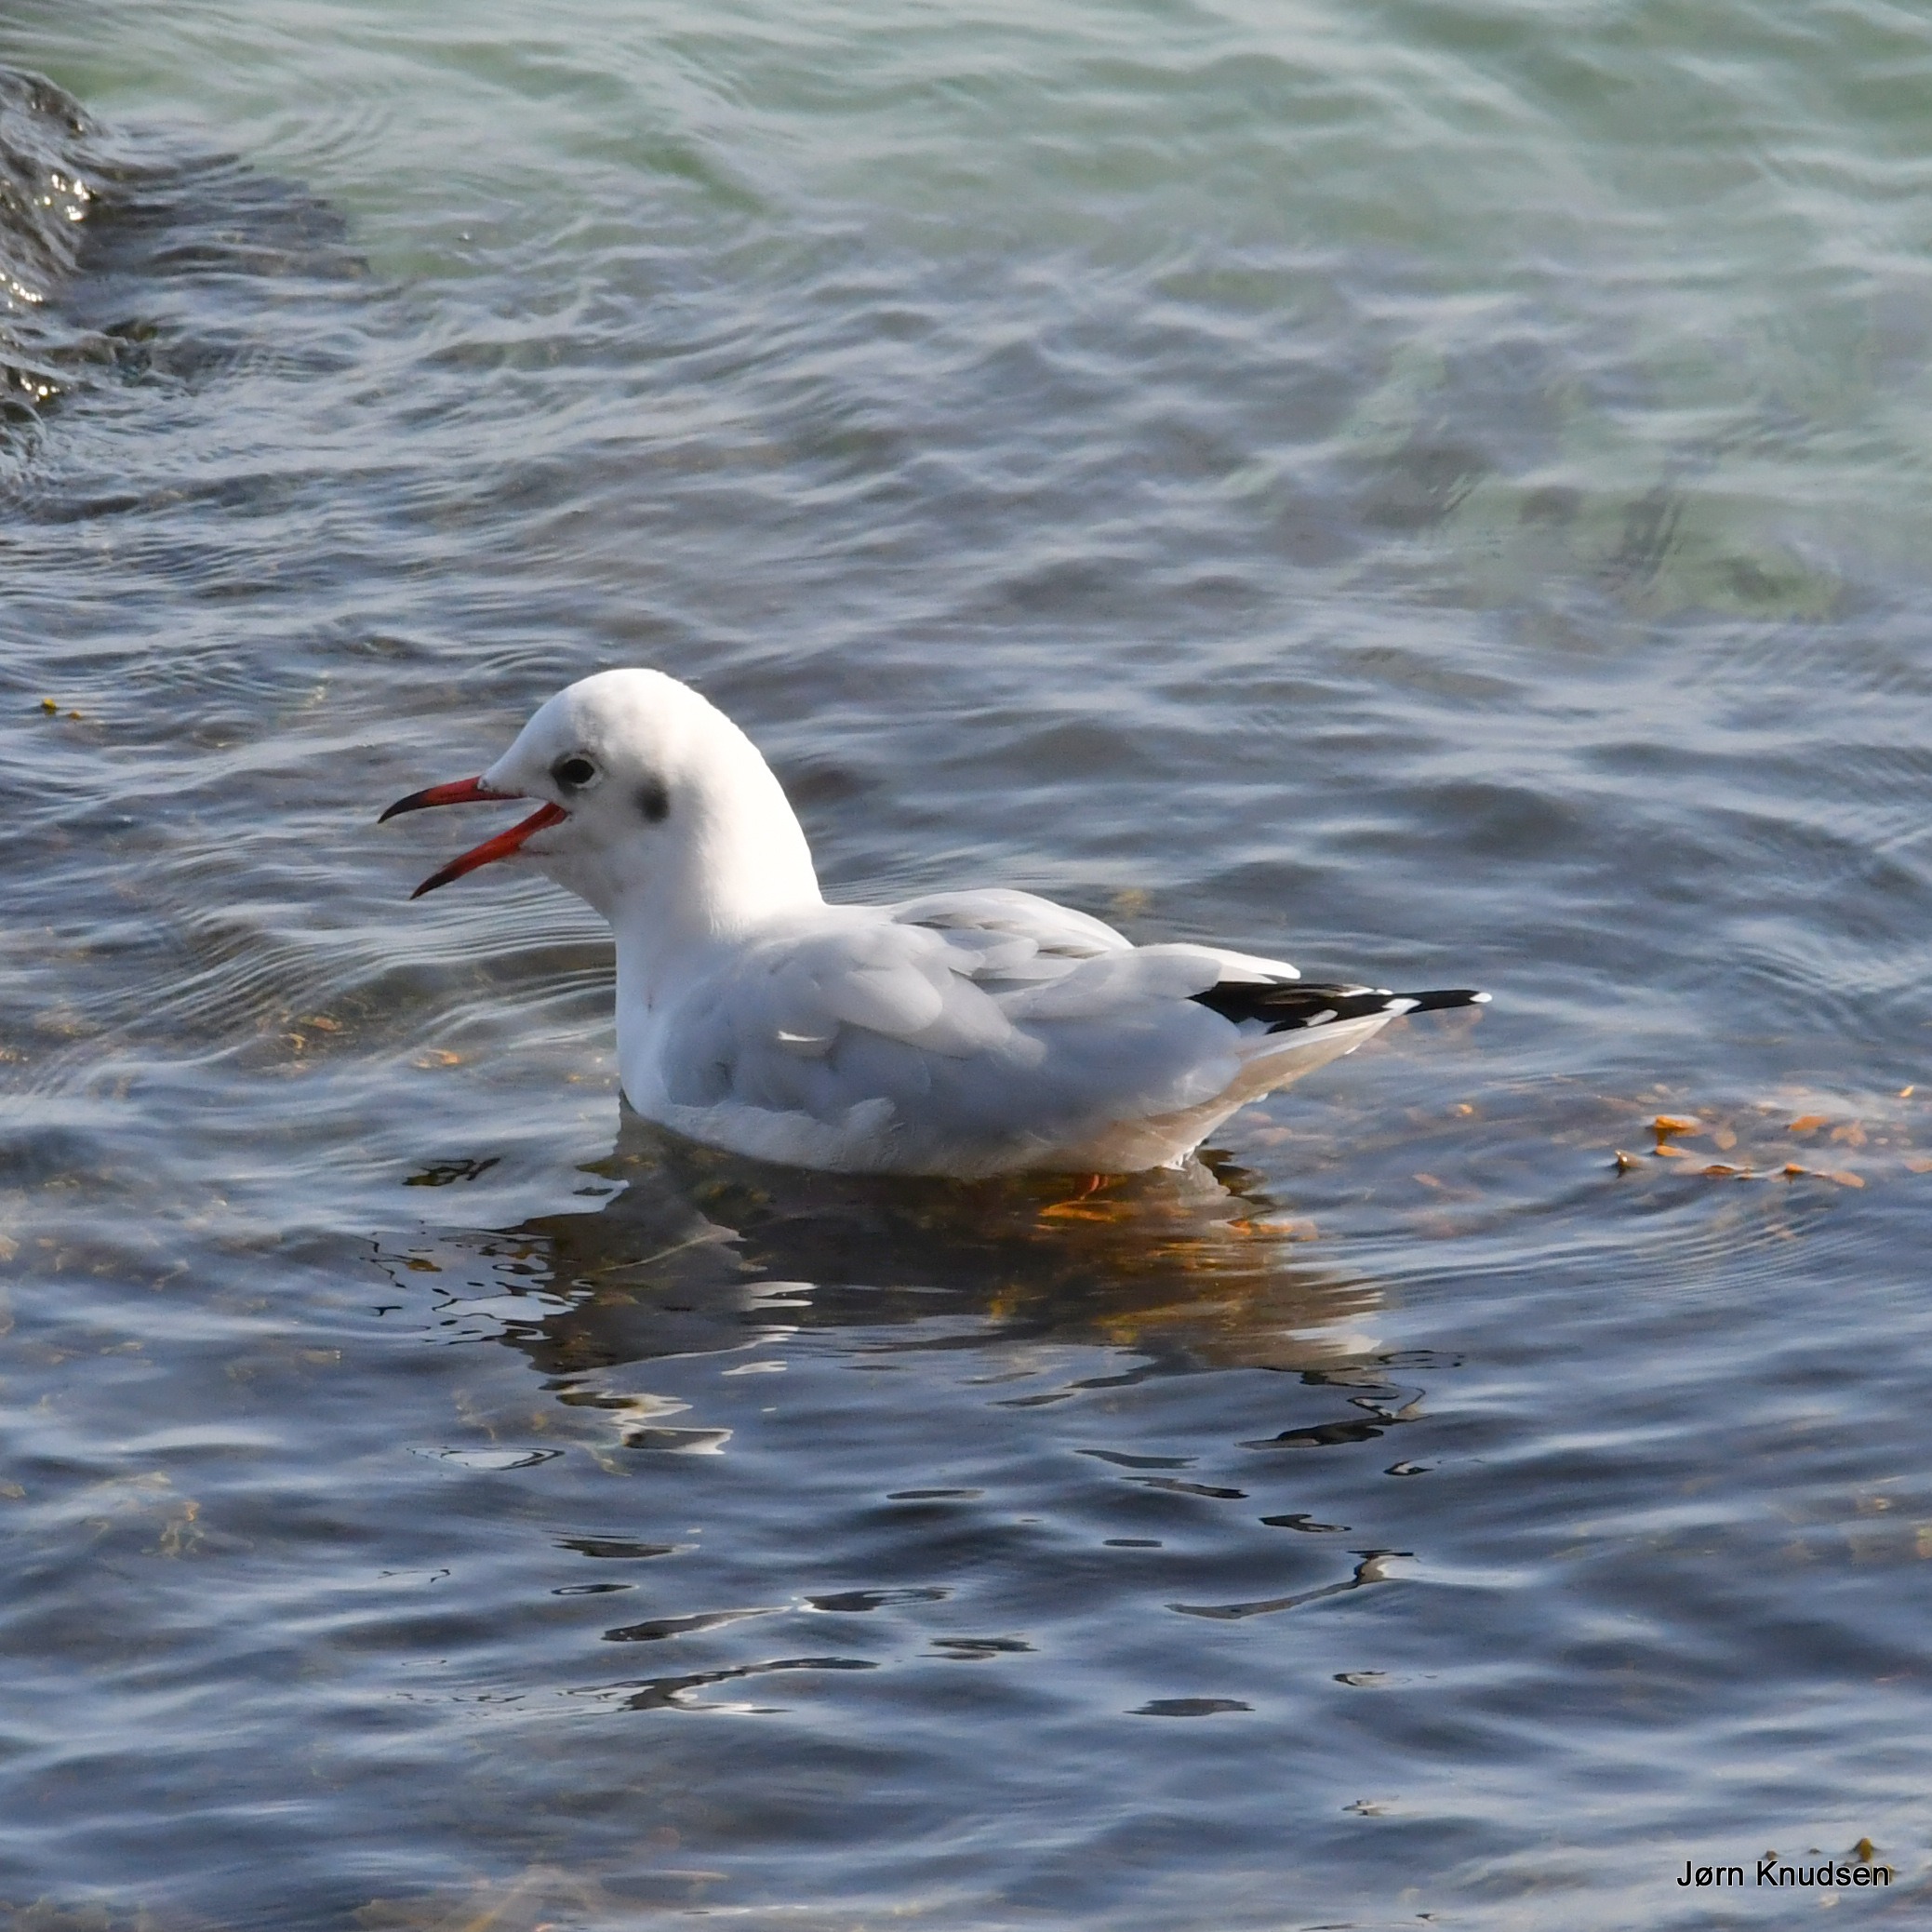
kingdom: Animalia
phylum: Chordata
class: Aves
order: Charadriiformes
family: Laridae
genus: Chroicocephalus
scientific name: Chroicocephalus ridibundus
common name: Hættemåge
